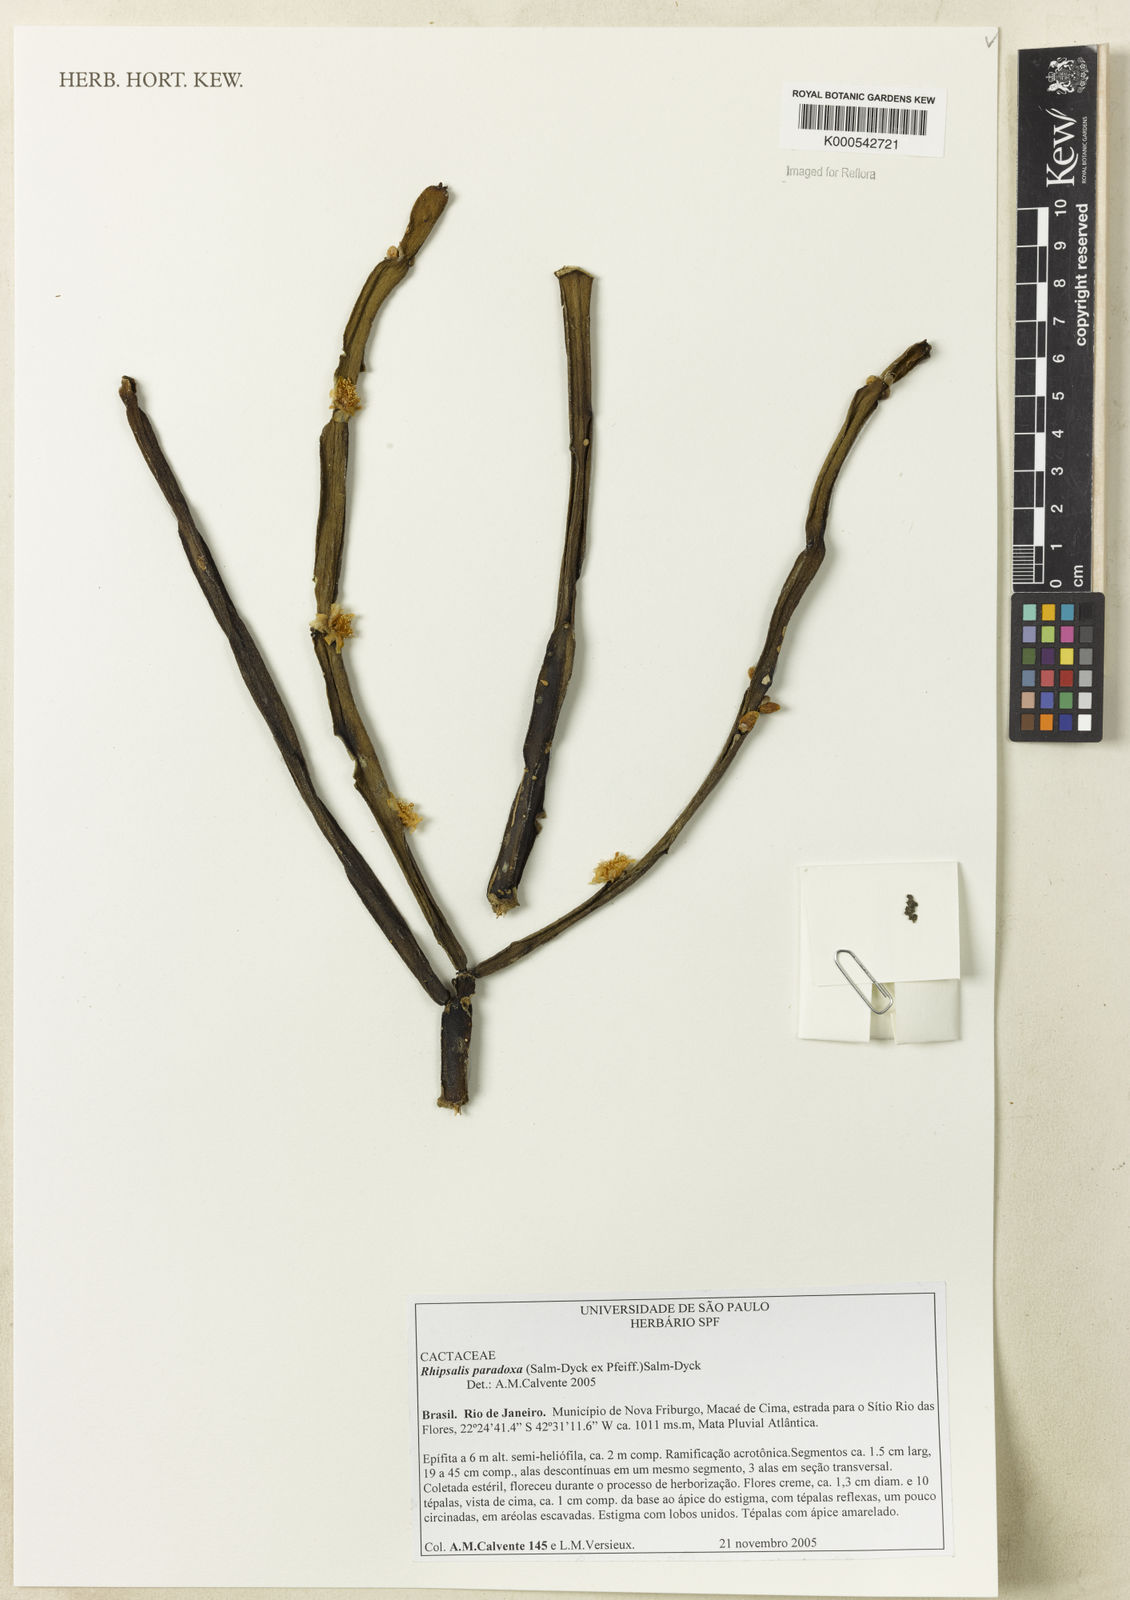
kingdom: Plantae
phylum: Tracheophyta
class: Magnoliopsida
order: Caryophyllales
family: Cactaceae
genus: Rhipsalis
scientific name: Rhipsalis paradoxa
